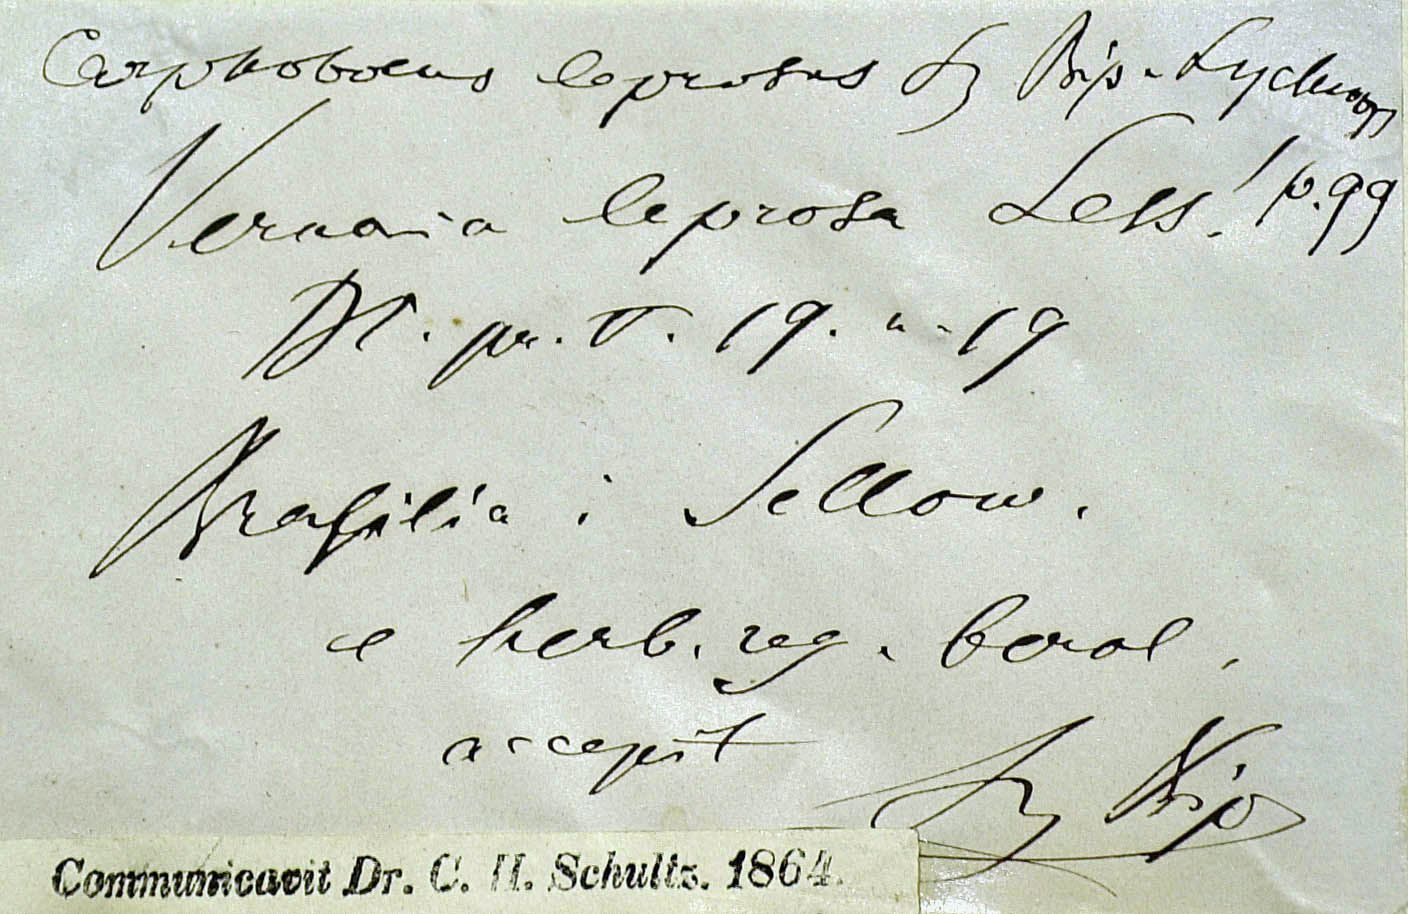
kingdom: Plantae
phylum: Tracheophyta
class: Magnoliopsida
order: Asterales
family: Asteraceae
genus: Piptocarpha
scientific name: Piptocarpha leprosa
